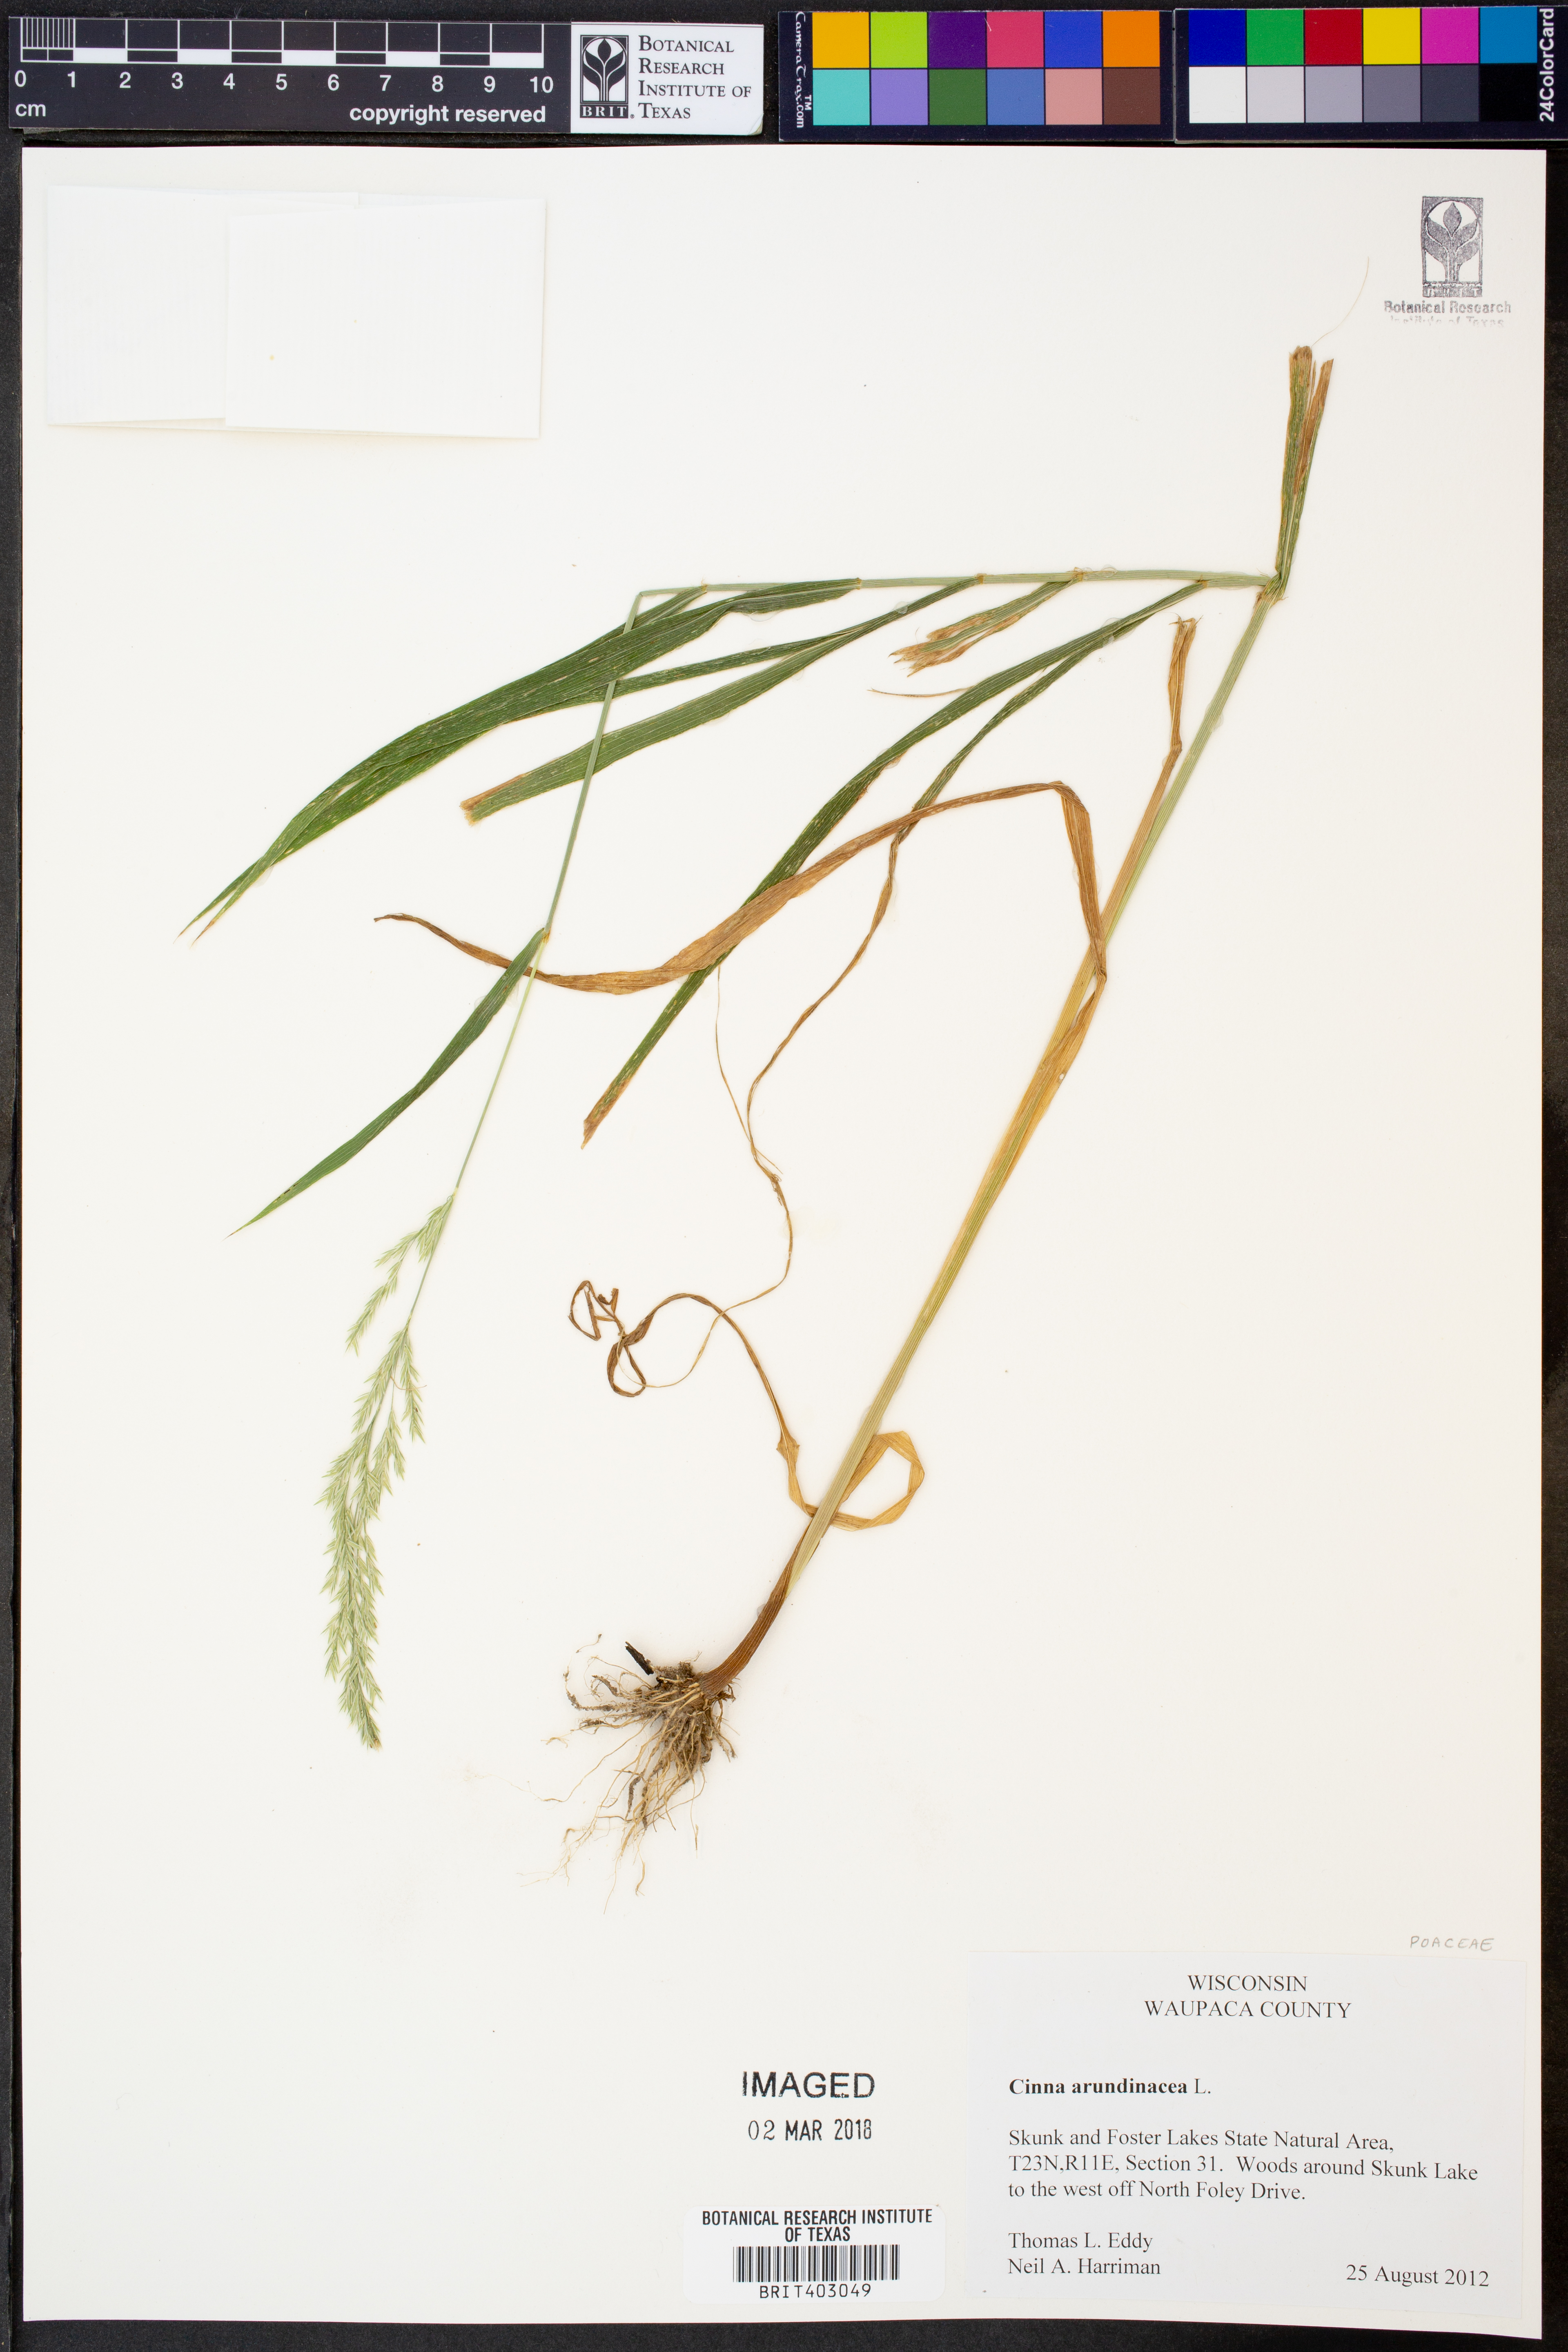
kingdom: Plantae
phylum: Tracheophyta
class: Liliopsida
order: Poales
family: Poaceae
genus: Cinna
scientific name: Cinna arundinacea
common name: Stout woodreed
